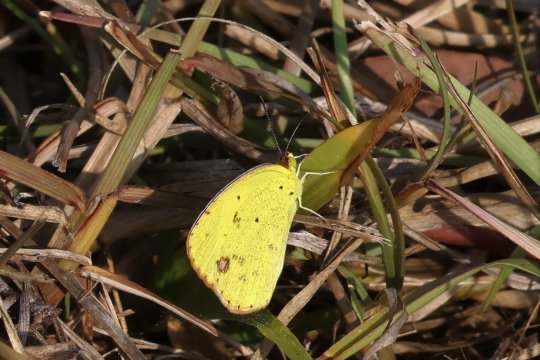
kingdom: Animalia
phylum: Arthropoda
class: Insecta
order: Lepidoptera
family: Pieridae
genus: Pyrisitia
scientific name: Pyrisitia lisa
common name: Little Yellow
